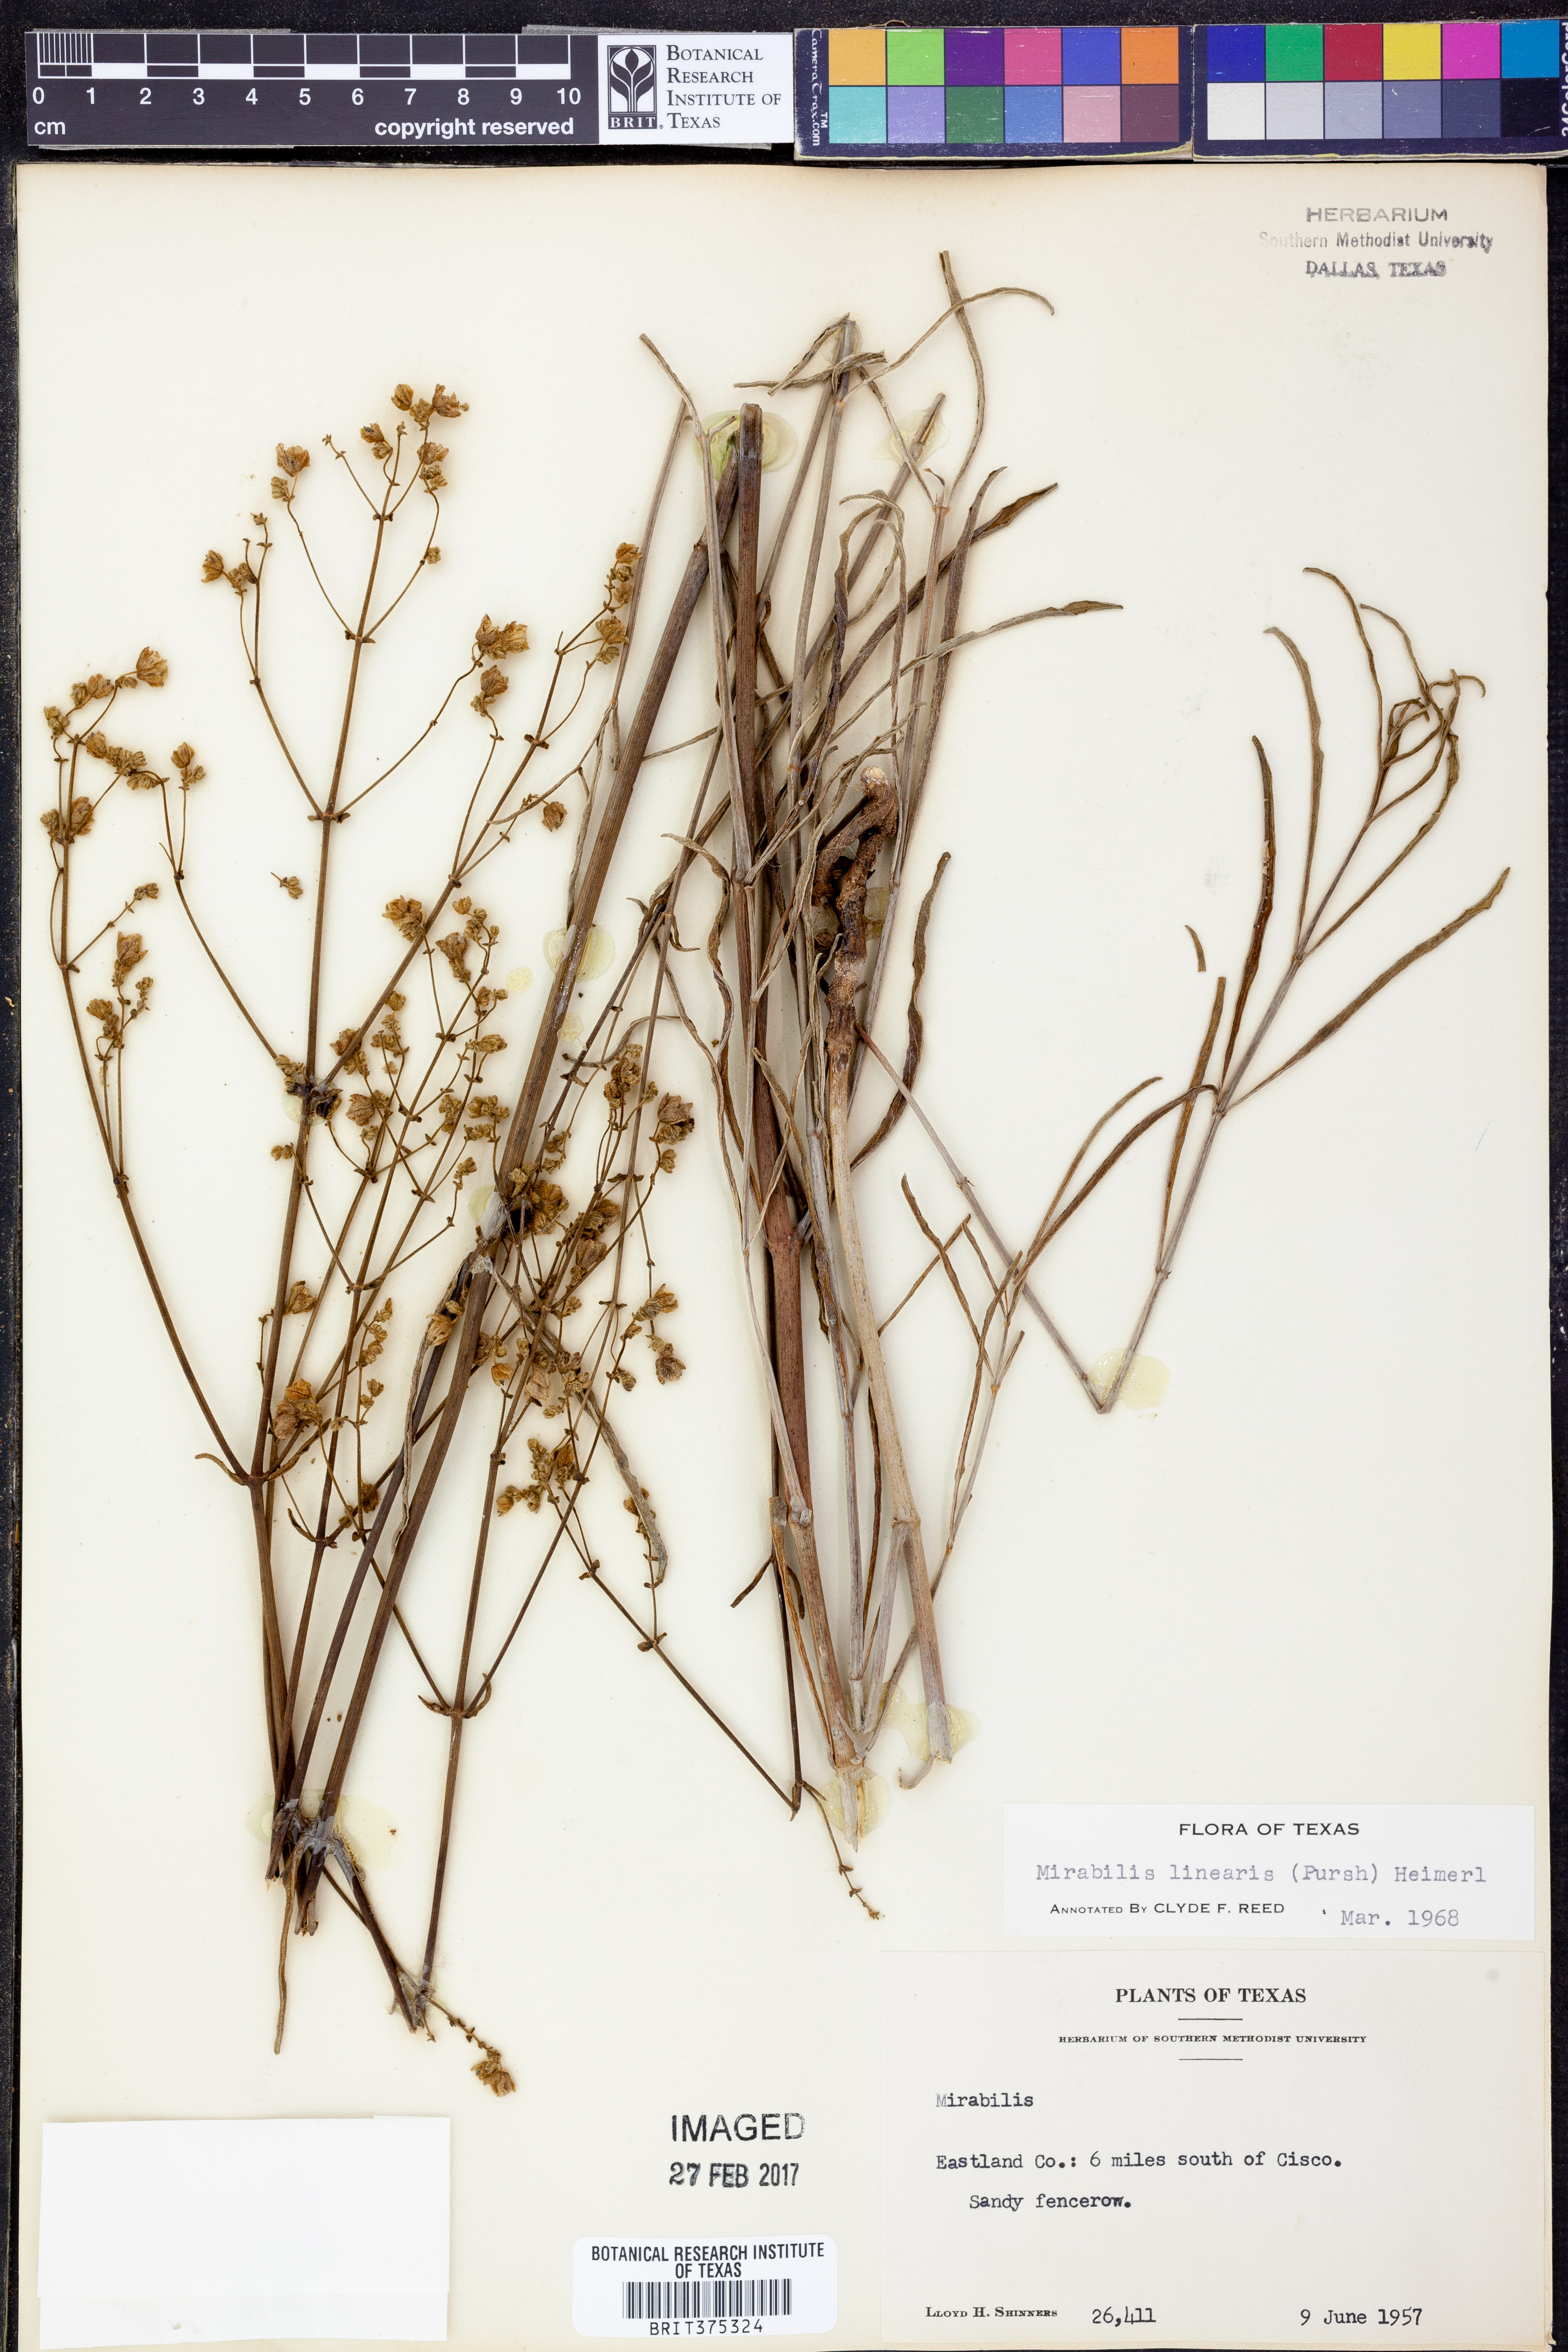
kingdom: Plantae
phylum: Tracheophyta
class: Magnoliopsida
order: Caryophyllales
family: Nyctaginaceae
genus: Mirabilis
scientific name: Mirabilis linearis
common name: Linear-leaved four-o'clock
